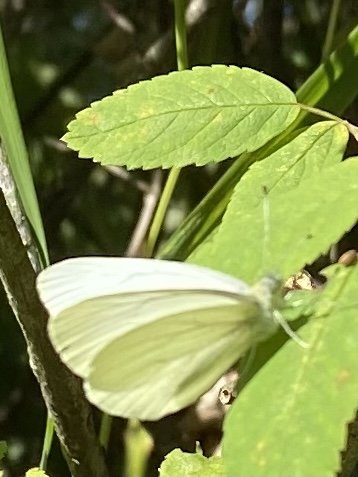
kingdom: Animalia
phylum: Arthropoda
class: Insecta
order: Lepidoptera
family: Pieridae
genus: Pieris
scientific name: Pieris marginalis
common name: Margined White
